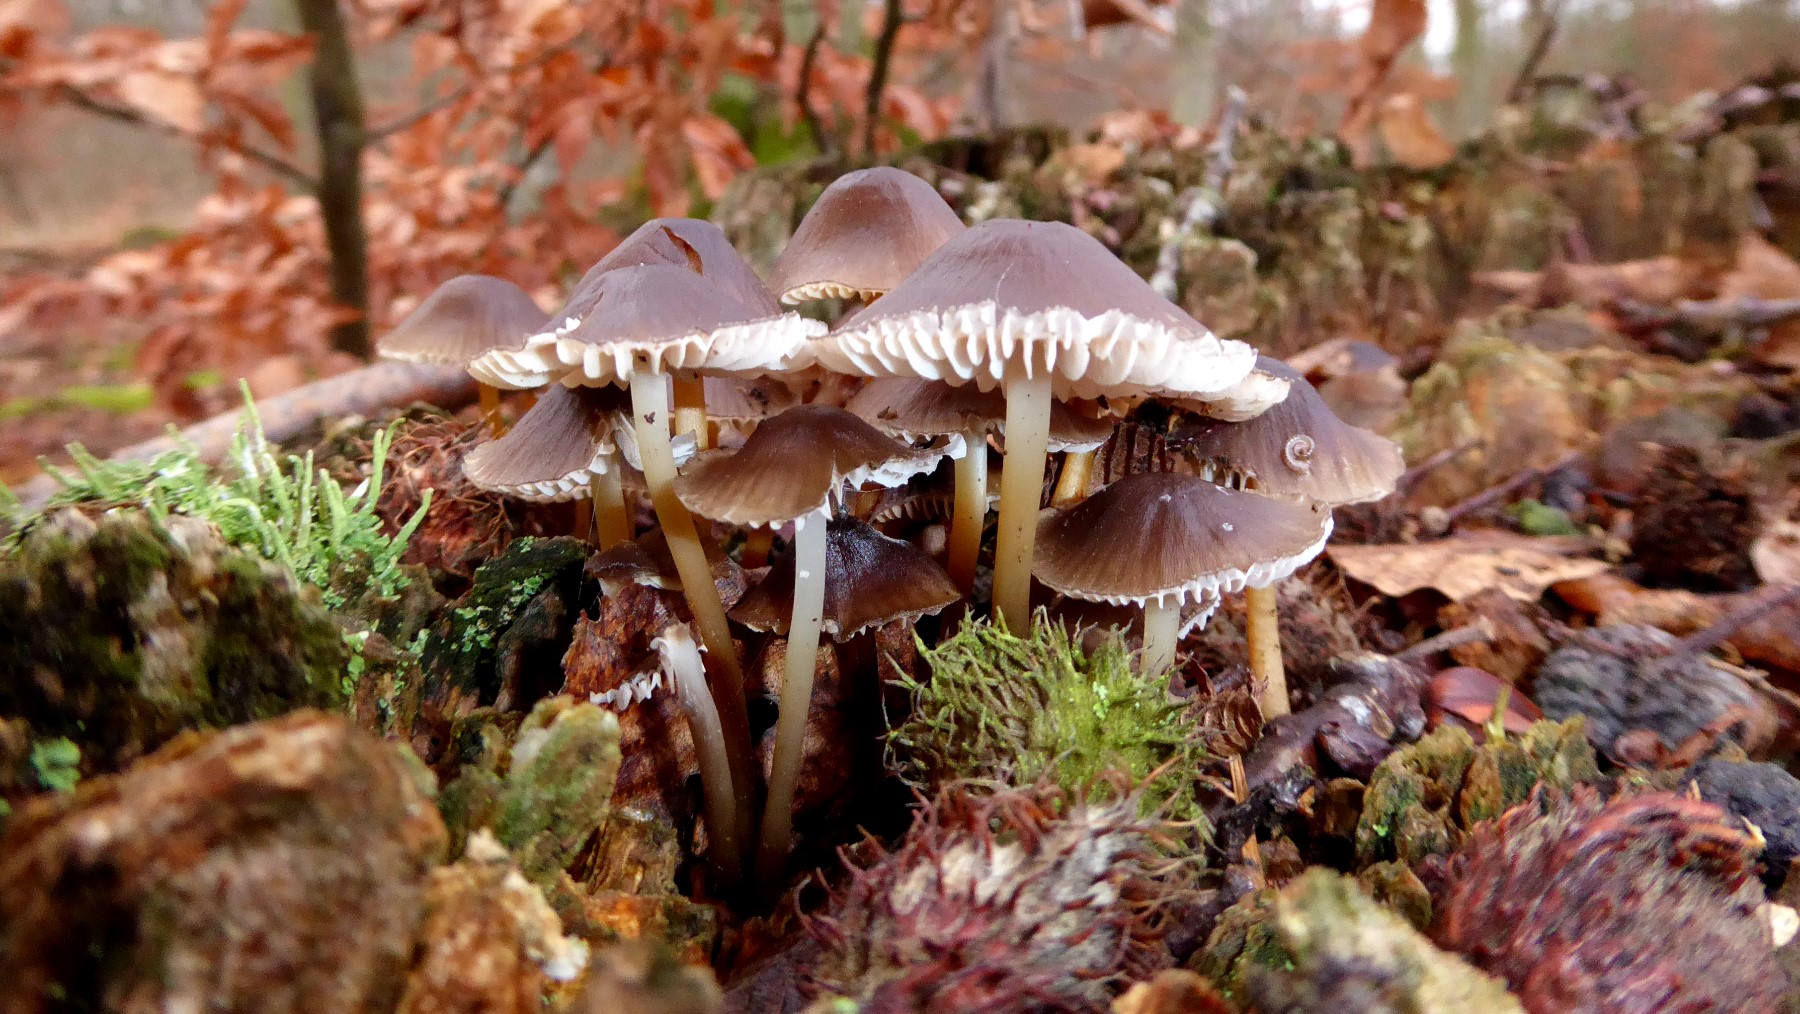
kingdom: Fungi
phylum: Basidiomycota
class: Agaricomycetes
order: Agaricales
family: Mycenaceae
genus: Mycena
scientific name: Mycena
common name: huesvamp
